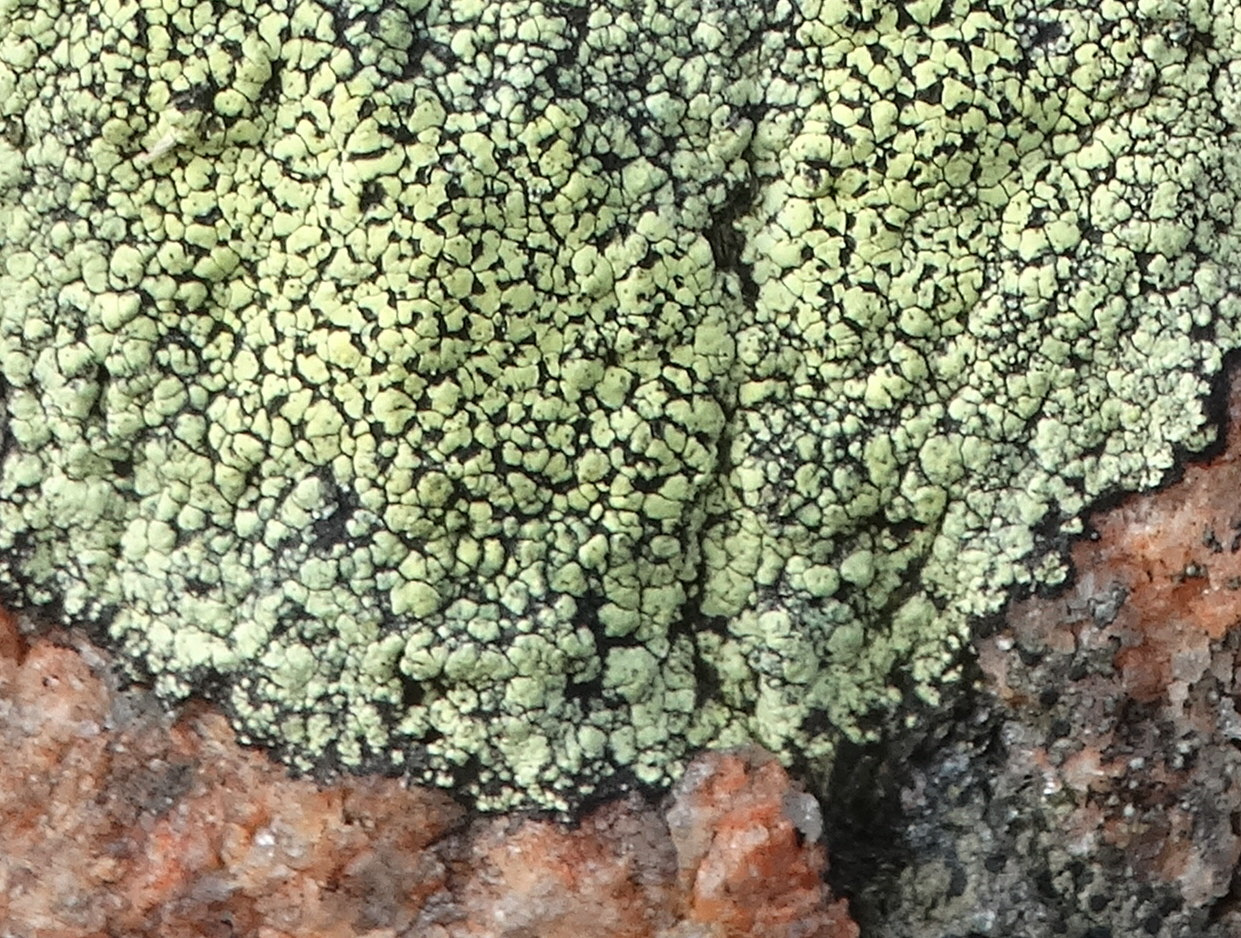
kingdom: Fungi
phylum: Ascomycota
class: Lecanoromycetes
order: Rhizocarpales
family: Rhizocarpaceae
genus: Rhizocarpon
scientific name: Rhizocarpon geographicum
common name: gulgrøn landkortlav
